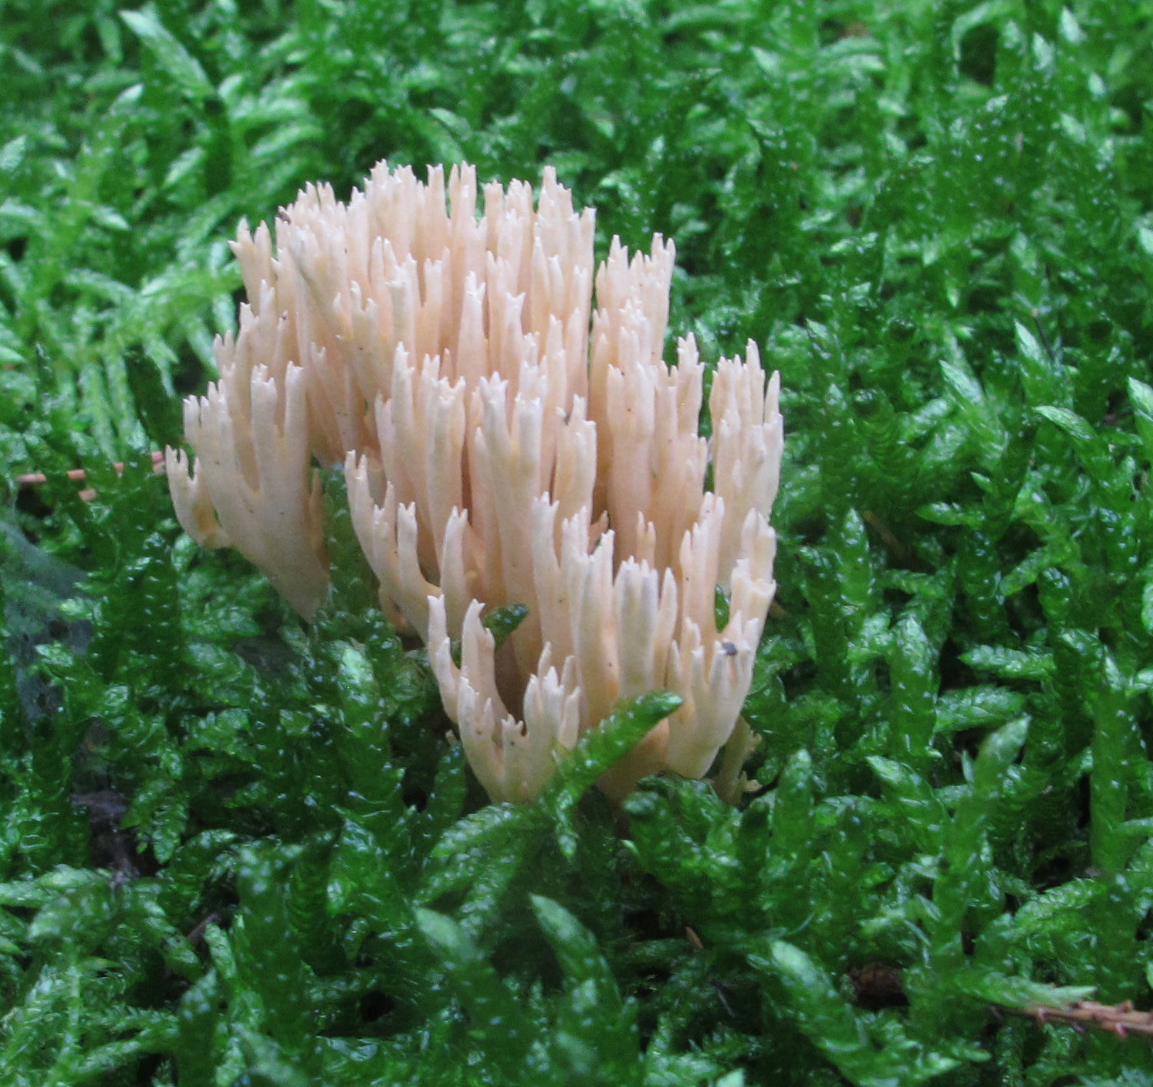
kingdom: Fungi
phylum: Basidiomycota
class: Agaricomycetes
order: Gomphales
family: Gomphaceae
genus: Ramaria
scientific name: Ramaria
